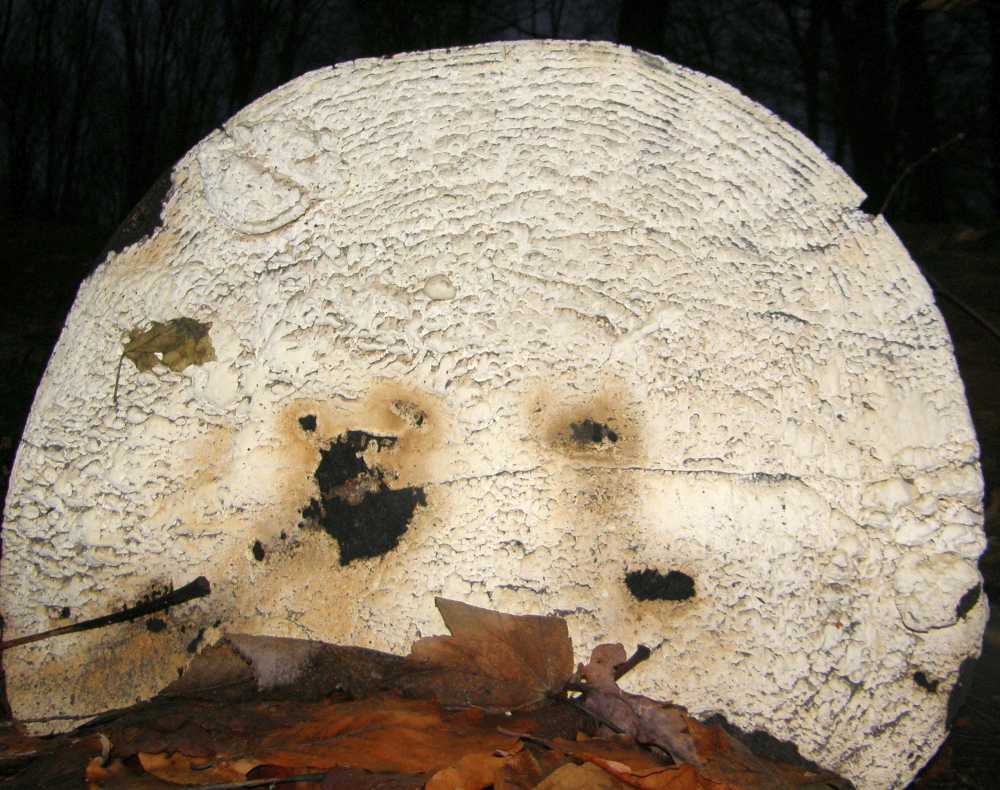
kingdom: Fungi
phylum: Basidiomycota
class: Agaricomycetes
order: Polyporales
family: Fomitopsidaceae
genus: Daedalea
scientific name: Daedalea xantha
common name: gul sejporesvamp
